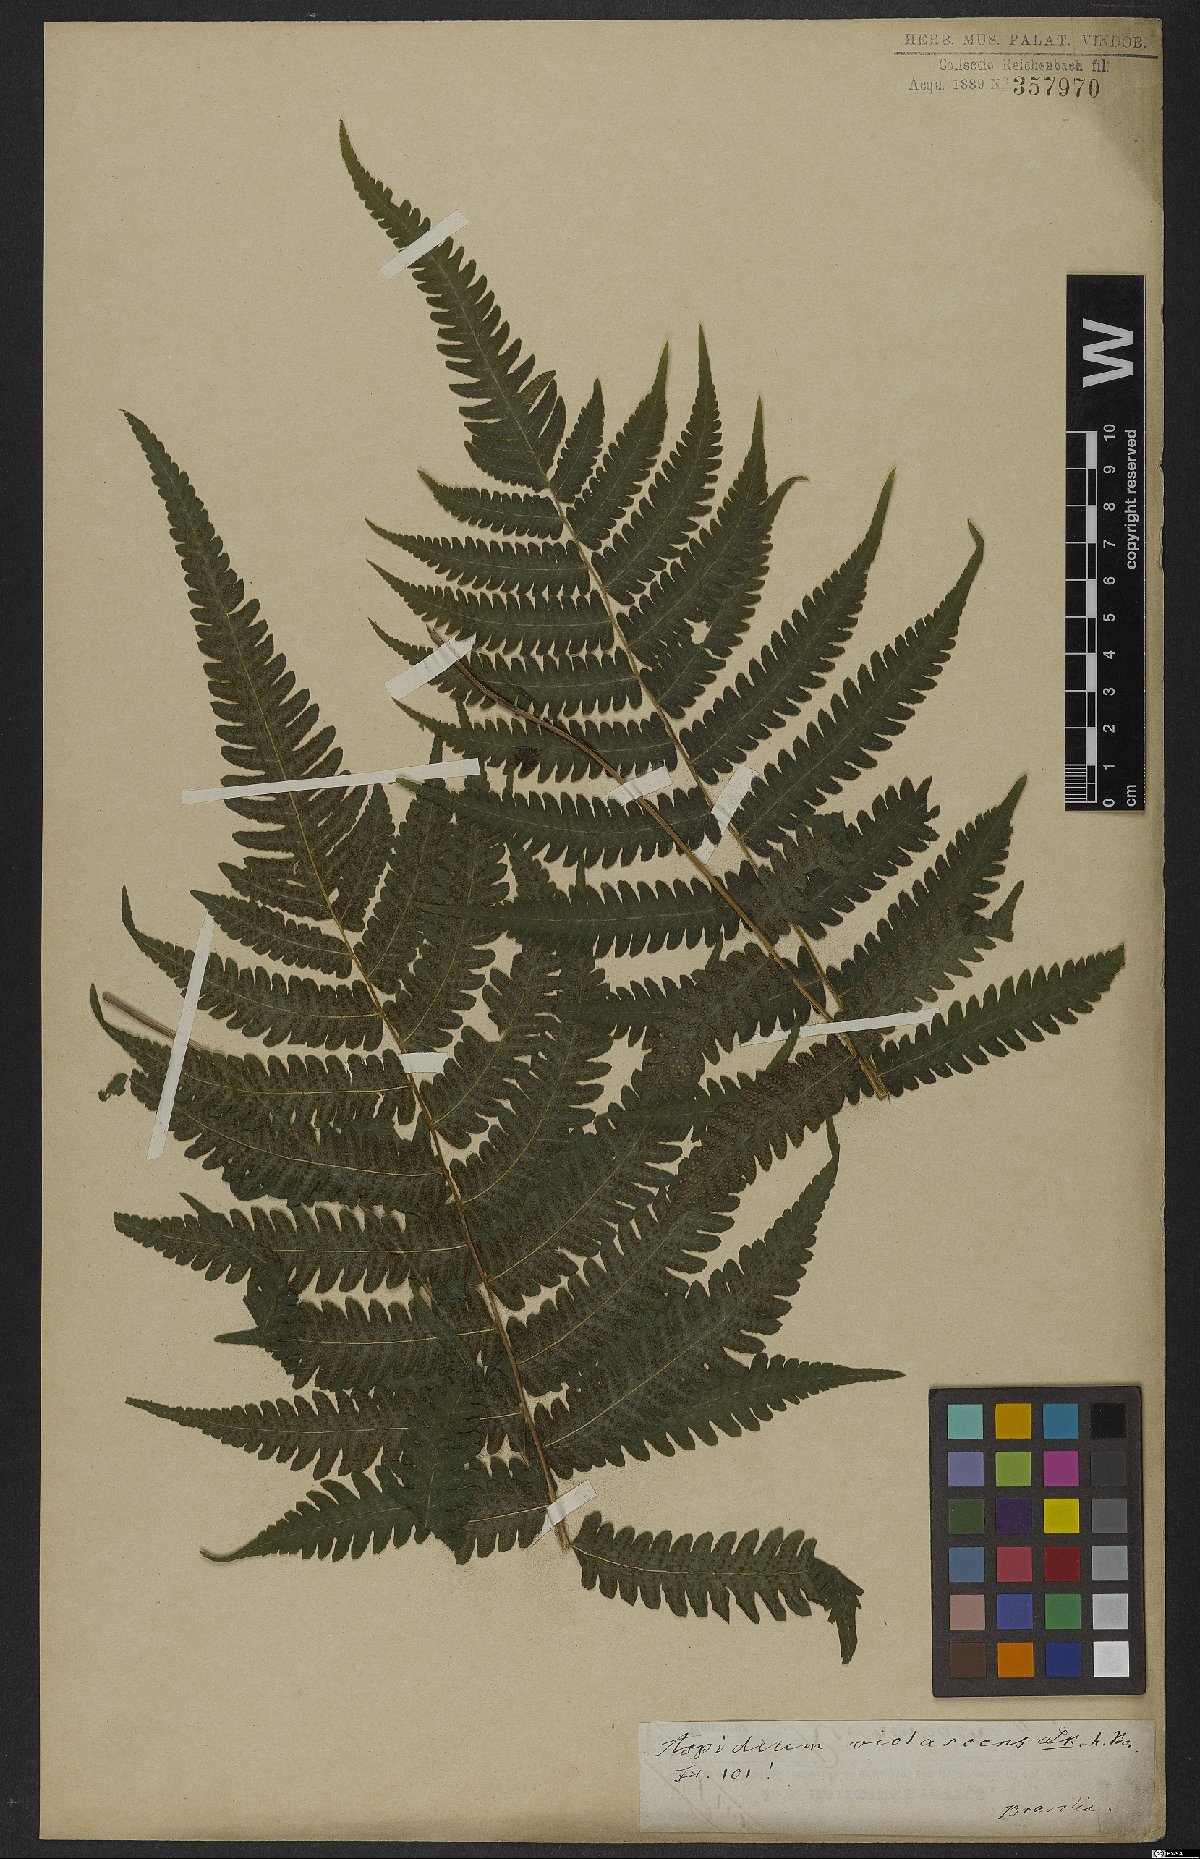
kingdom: Plantae
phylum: Tracheophyta
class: Polypodiopsida
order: Polypodiales
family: Thelypteridaceae
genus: Christella
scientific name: Christella parasitica
